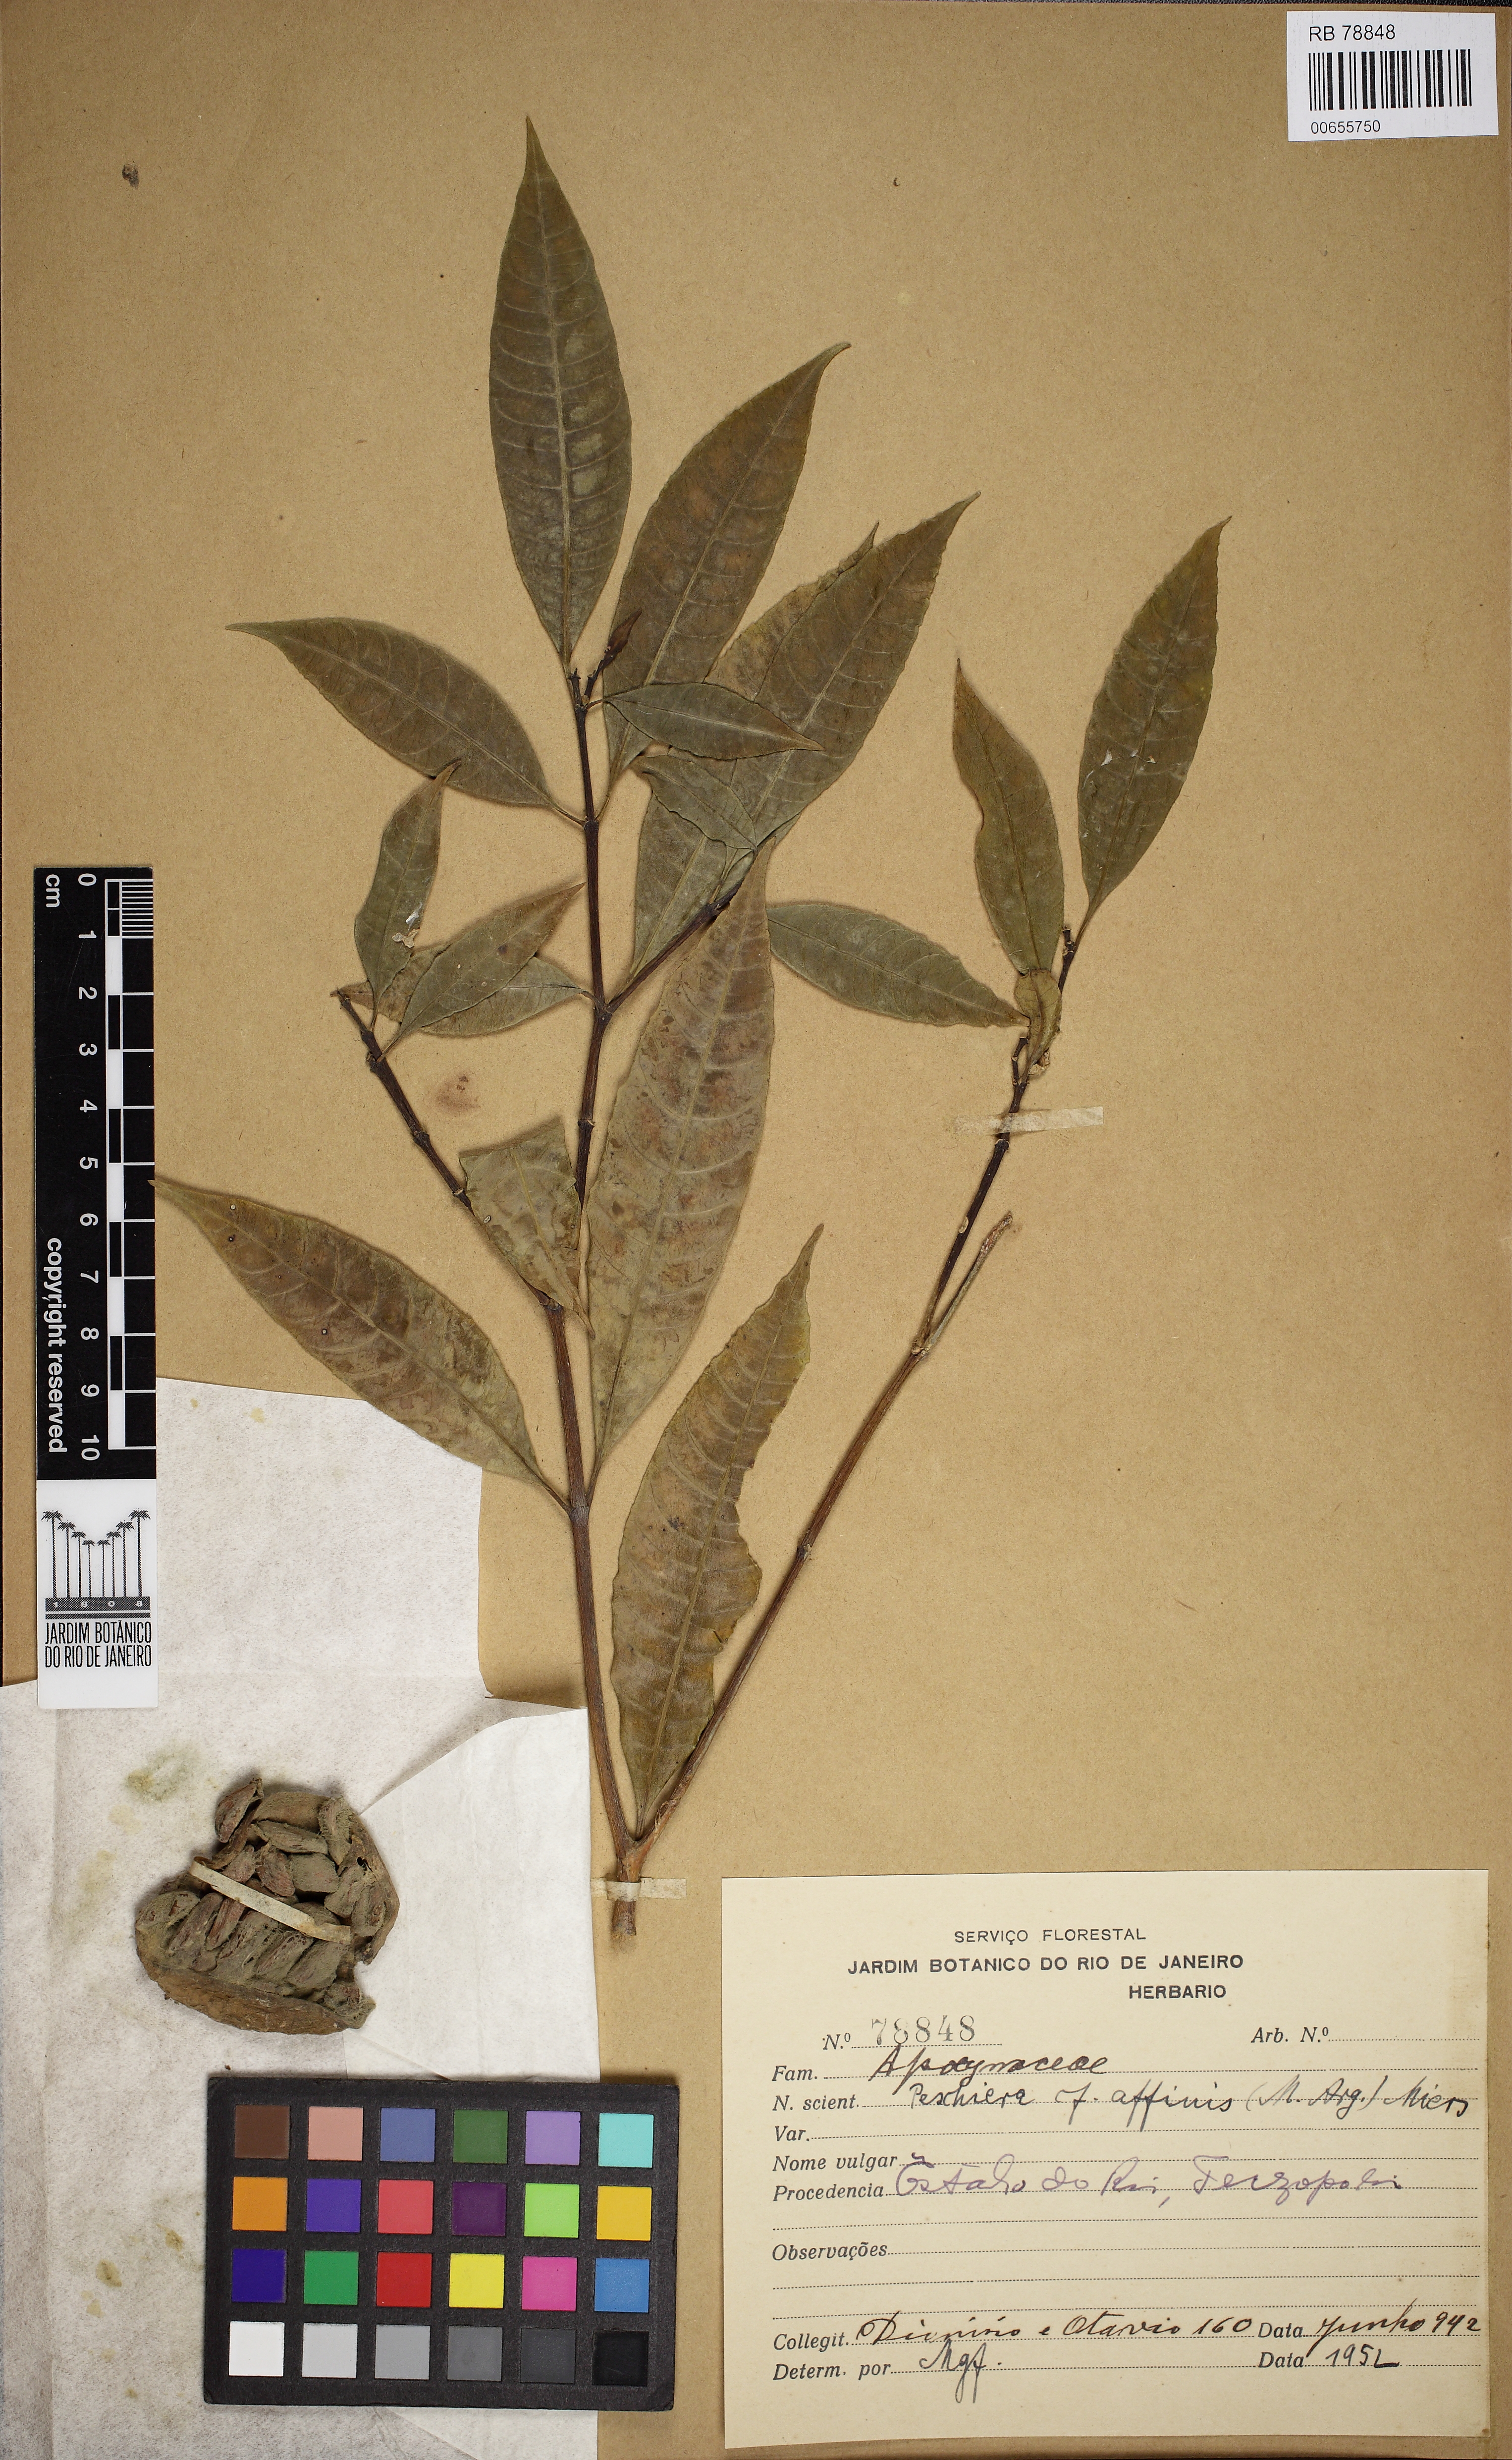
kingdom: Plantae
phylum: Tracheophyta
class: Magnoliopsida
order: Gentianales
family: Apocynaceae
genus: Tabernaemontana
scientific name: Tabernaemontana catharinensis
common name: Pinwheel-flower
